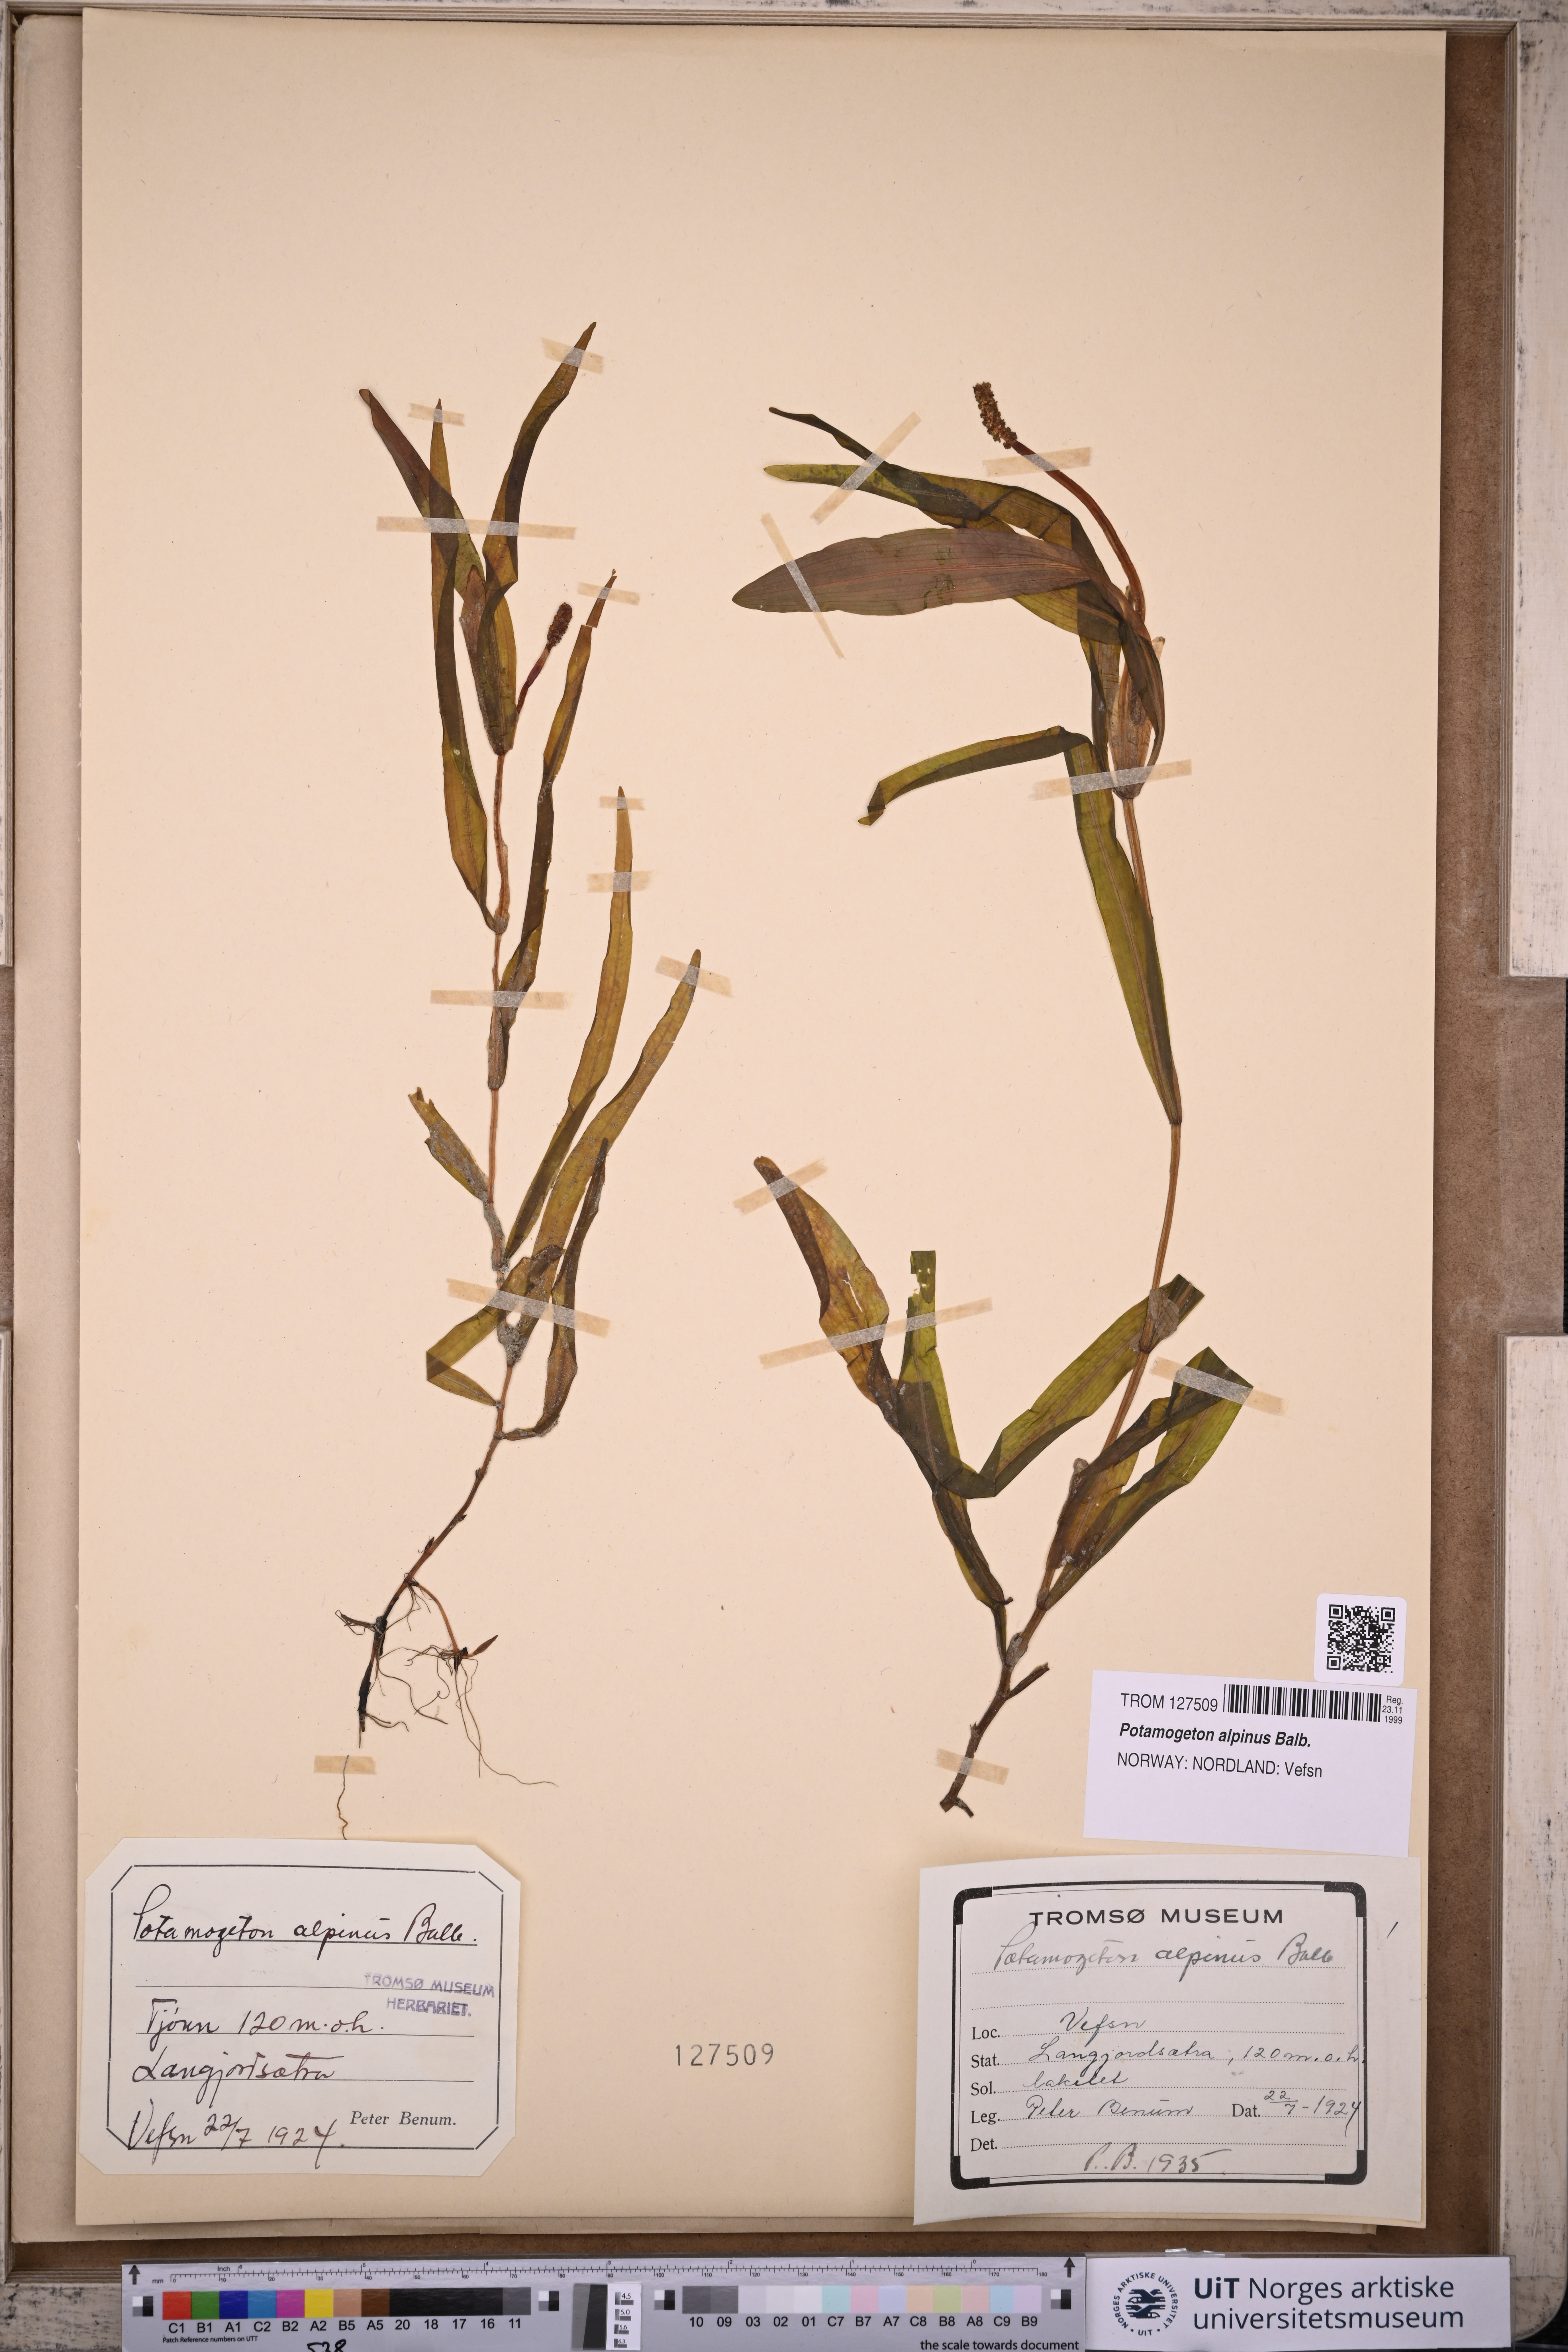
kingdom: Plantae
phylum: Tracheophyta
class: Liliopsida
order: Alismatales
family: Potamogetonaceae
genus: Potamogeton
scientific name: Potamogeton alpinus
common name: Red pondweed
